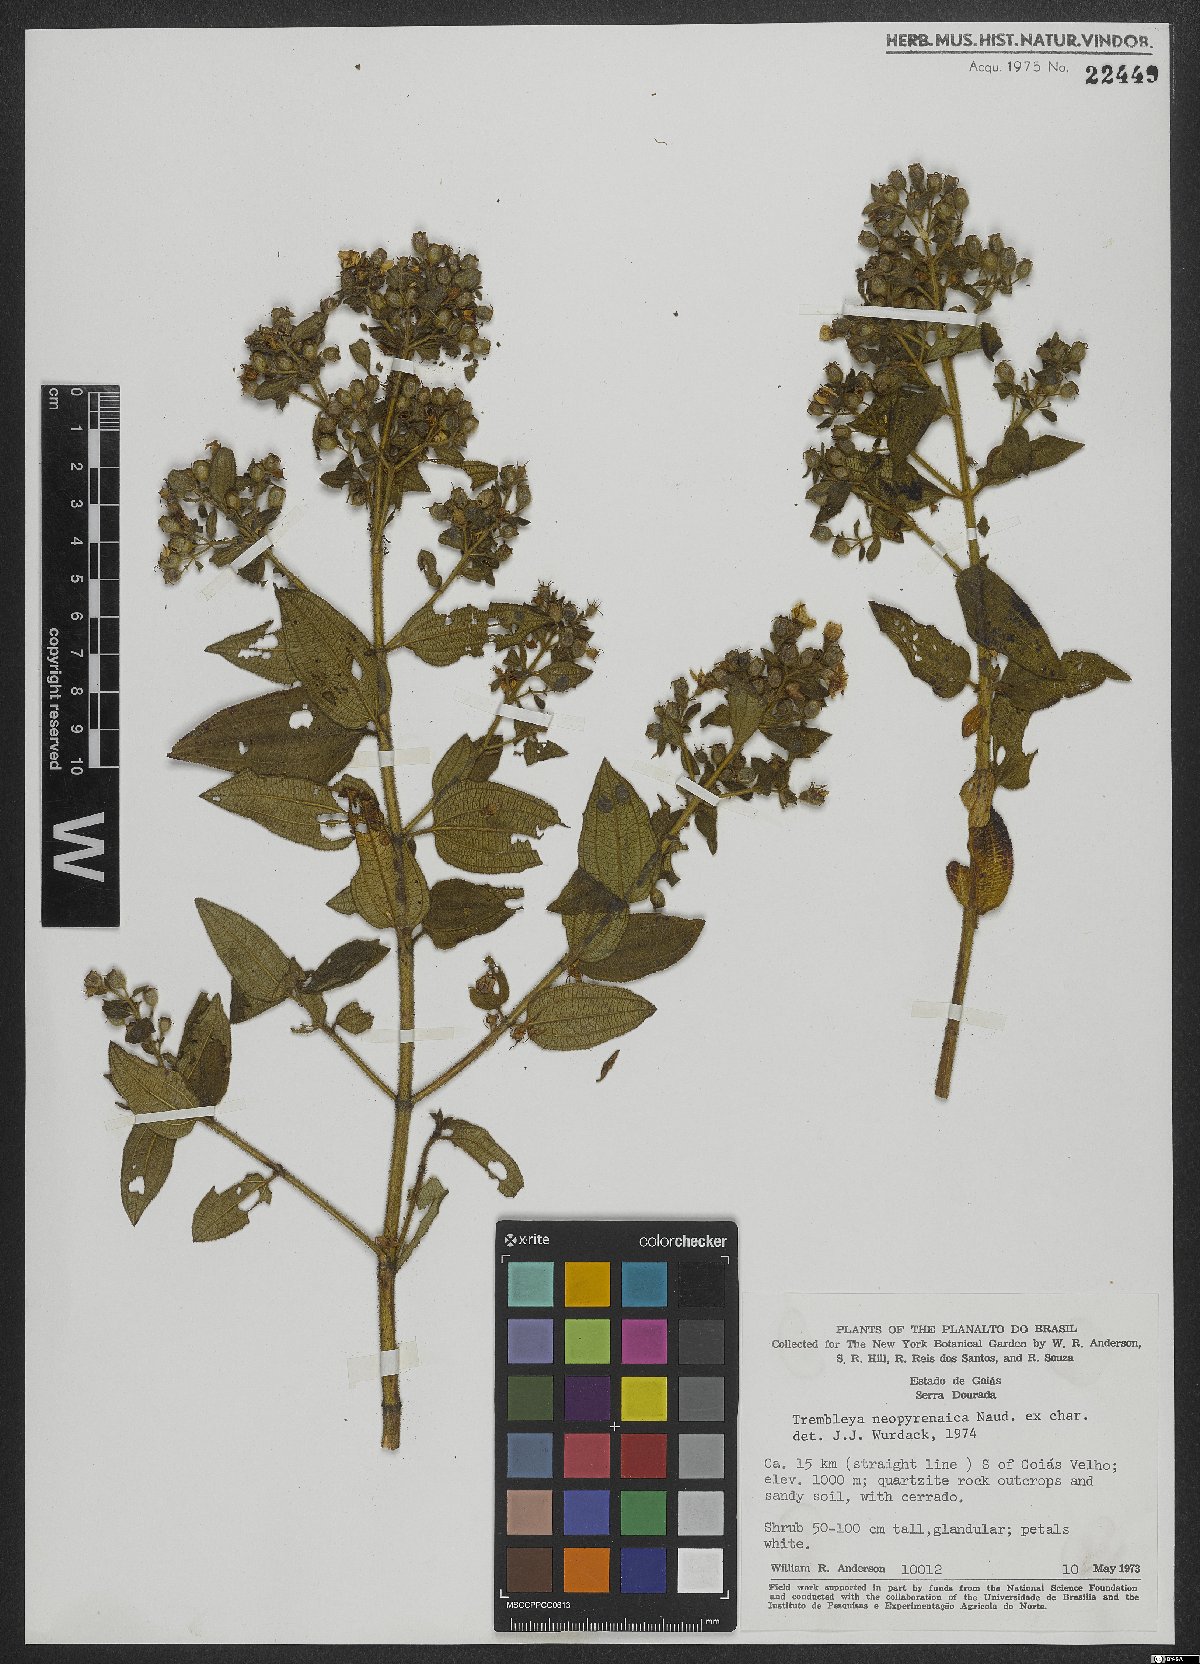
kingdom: Plantae
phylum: Tracheophyta
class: Magnoliopsida
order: Myrtales
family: Melastomataceae
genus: Microlicia
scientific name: Microlicia neopyrenaica
